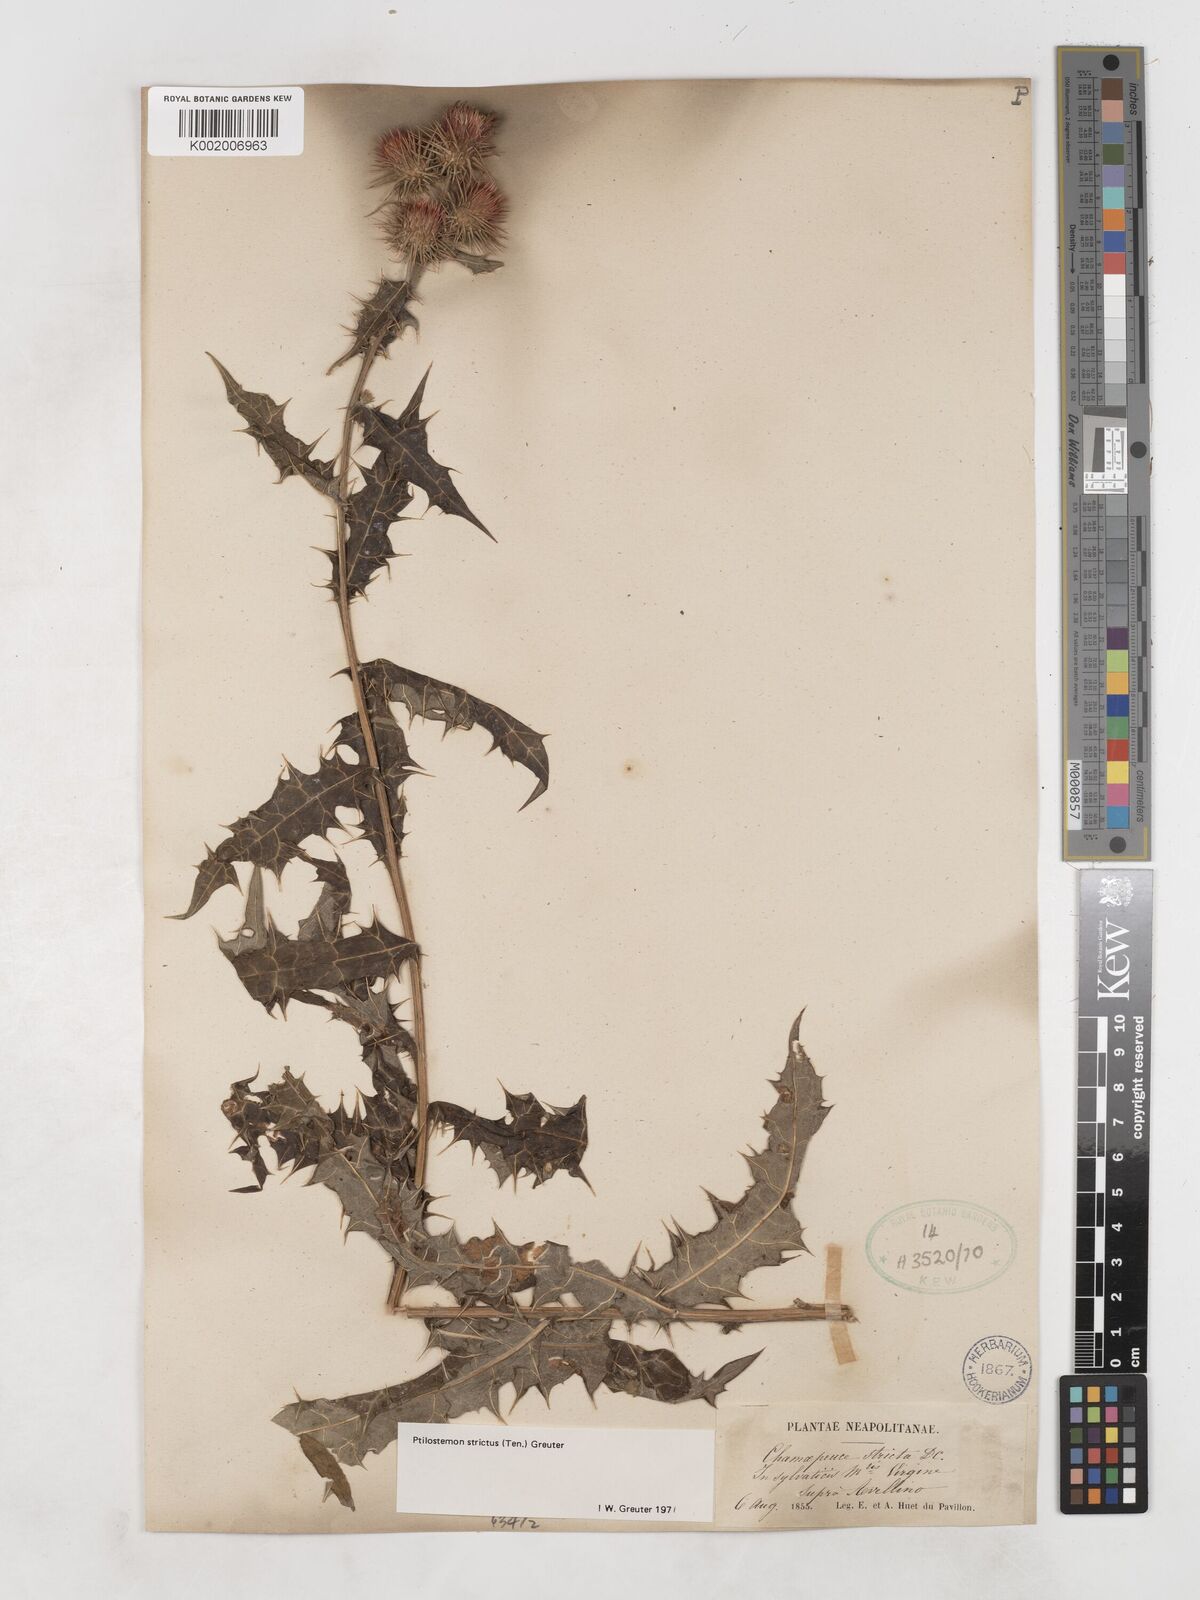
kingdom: Plantae
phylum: Tracheophyta
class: Magnoliopsida
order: Asterales
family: Asteraceae
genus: Ptilostemon
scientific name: Ptilostemon strictus
